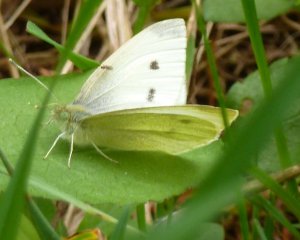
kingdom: Animalia
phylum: Arthropoda
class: Insecta
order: Lepidoptera
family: Pieridae
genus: Pieris
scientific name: Pieris rapae
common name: Cabbage White
